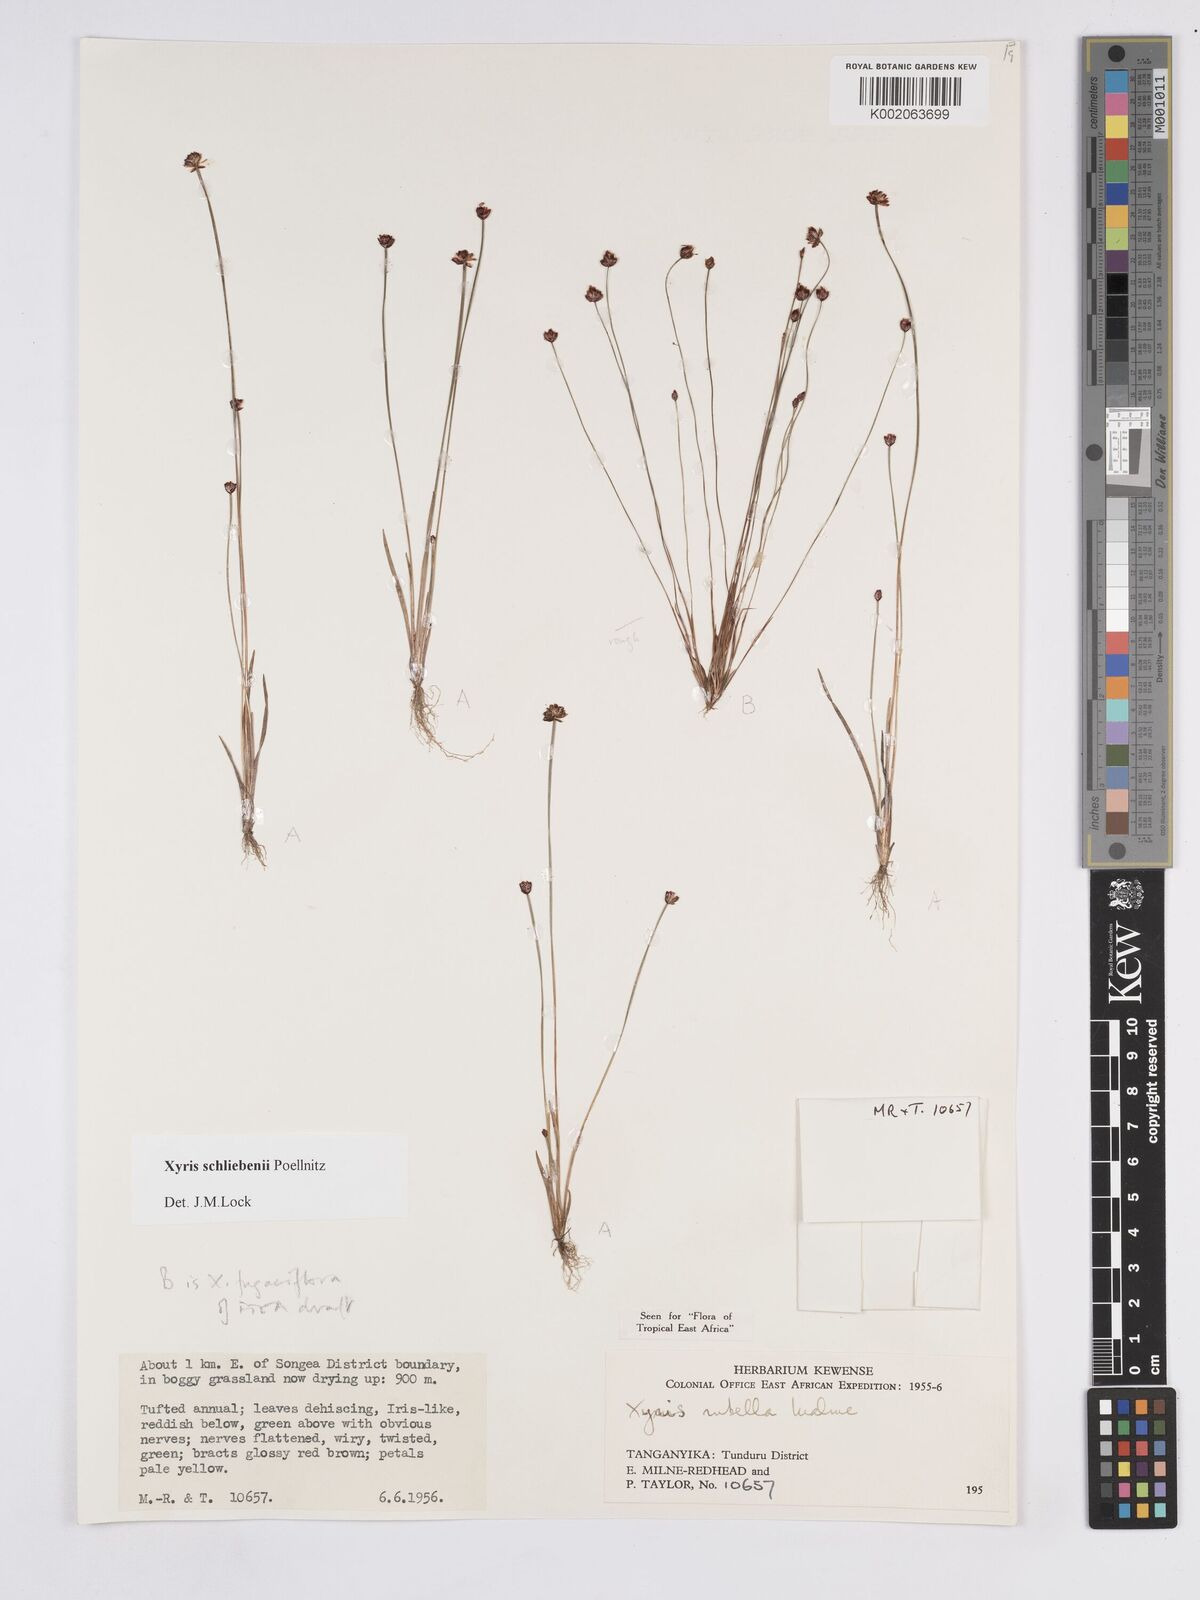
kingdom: Plantae
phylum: Tracheophyta
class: Liliopsida
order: Poales
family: Xyridaceae
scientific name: Xyridaceae
